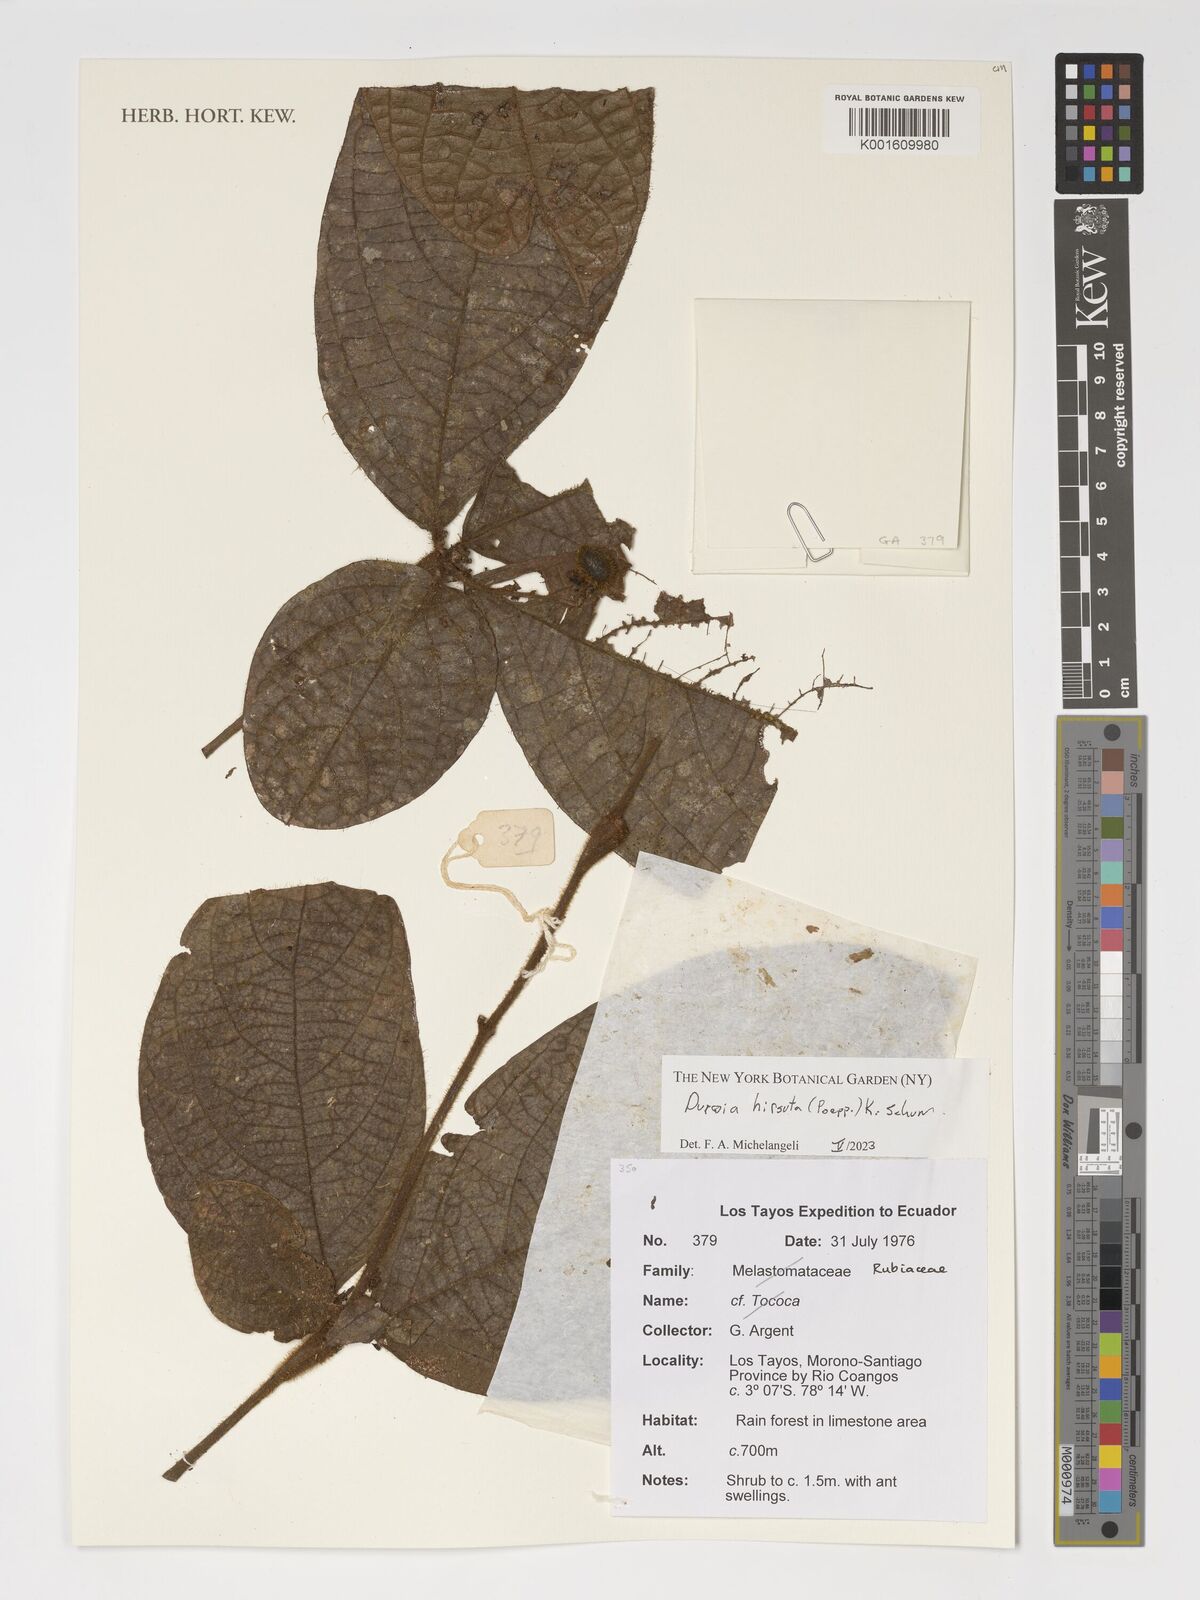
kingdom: Plantae
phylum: Tracheophyta
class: Magnoliopsida
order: Gentianales
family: Rubiaceae
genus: Duroia
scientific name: Duroia hirsuta
